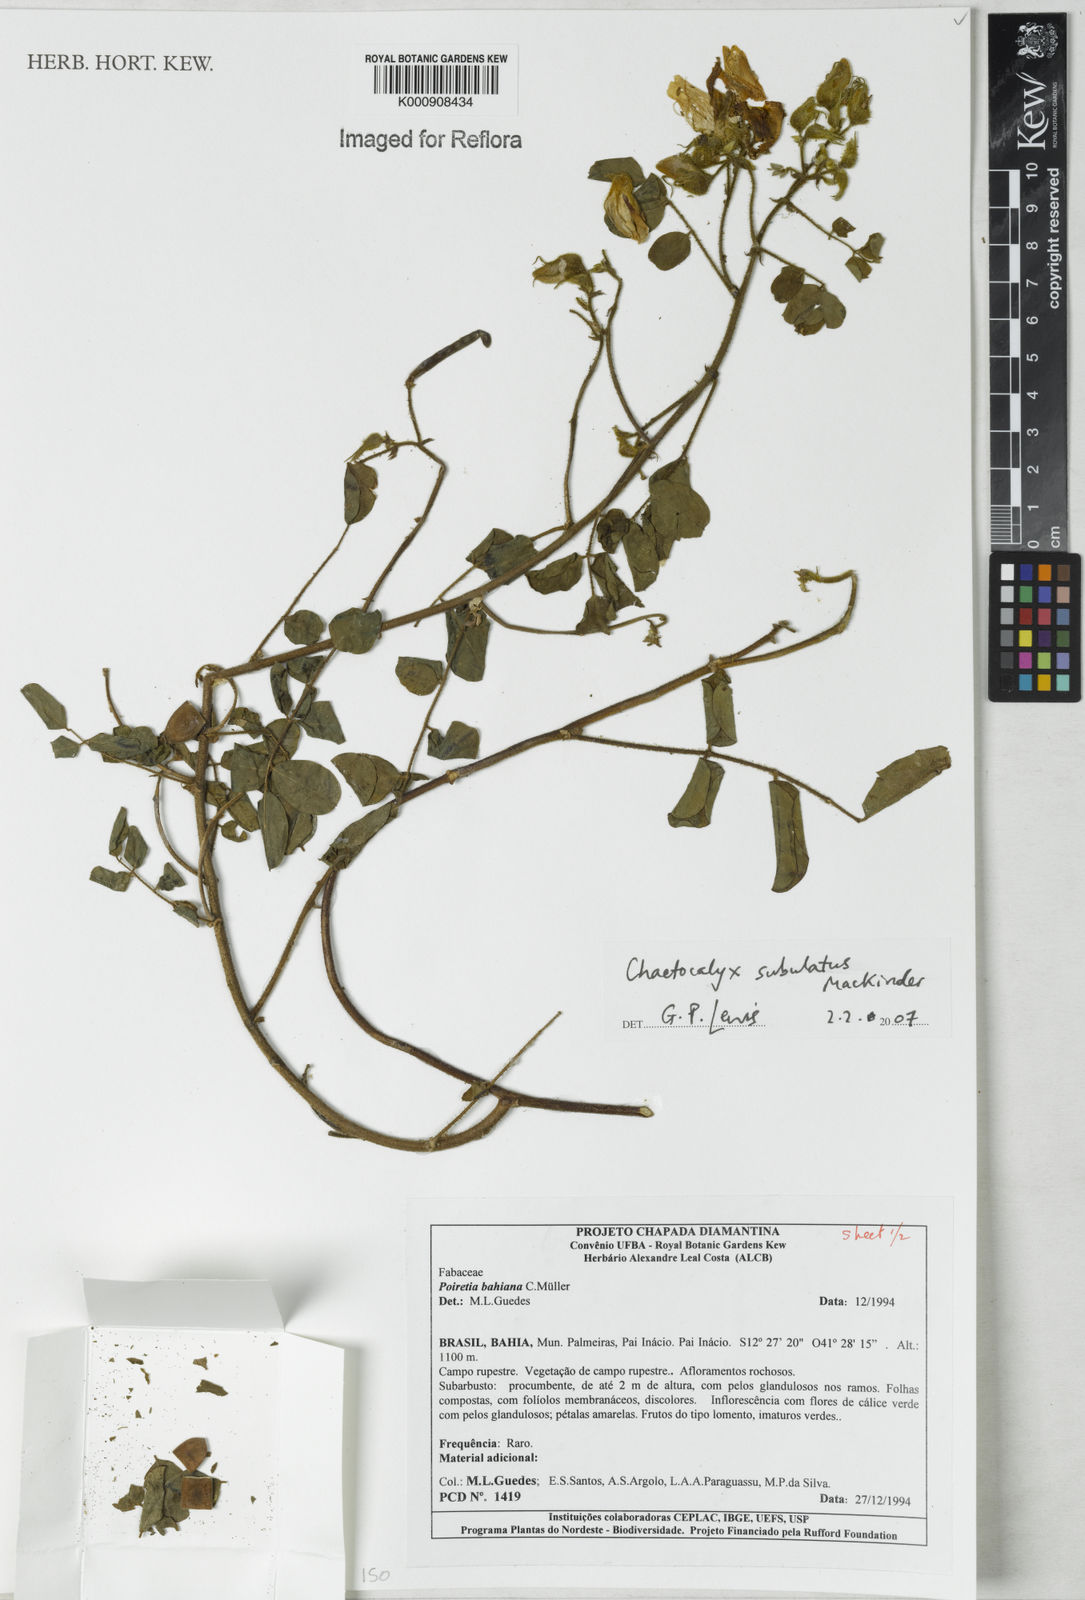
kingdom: Plantae
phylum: Tracheophyta
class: Magnoliopsida
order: Fabales
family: Fabaceae
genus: Nissolia
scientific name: Nissolia subulata
